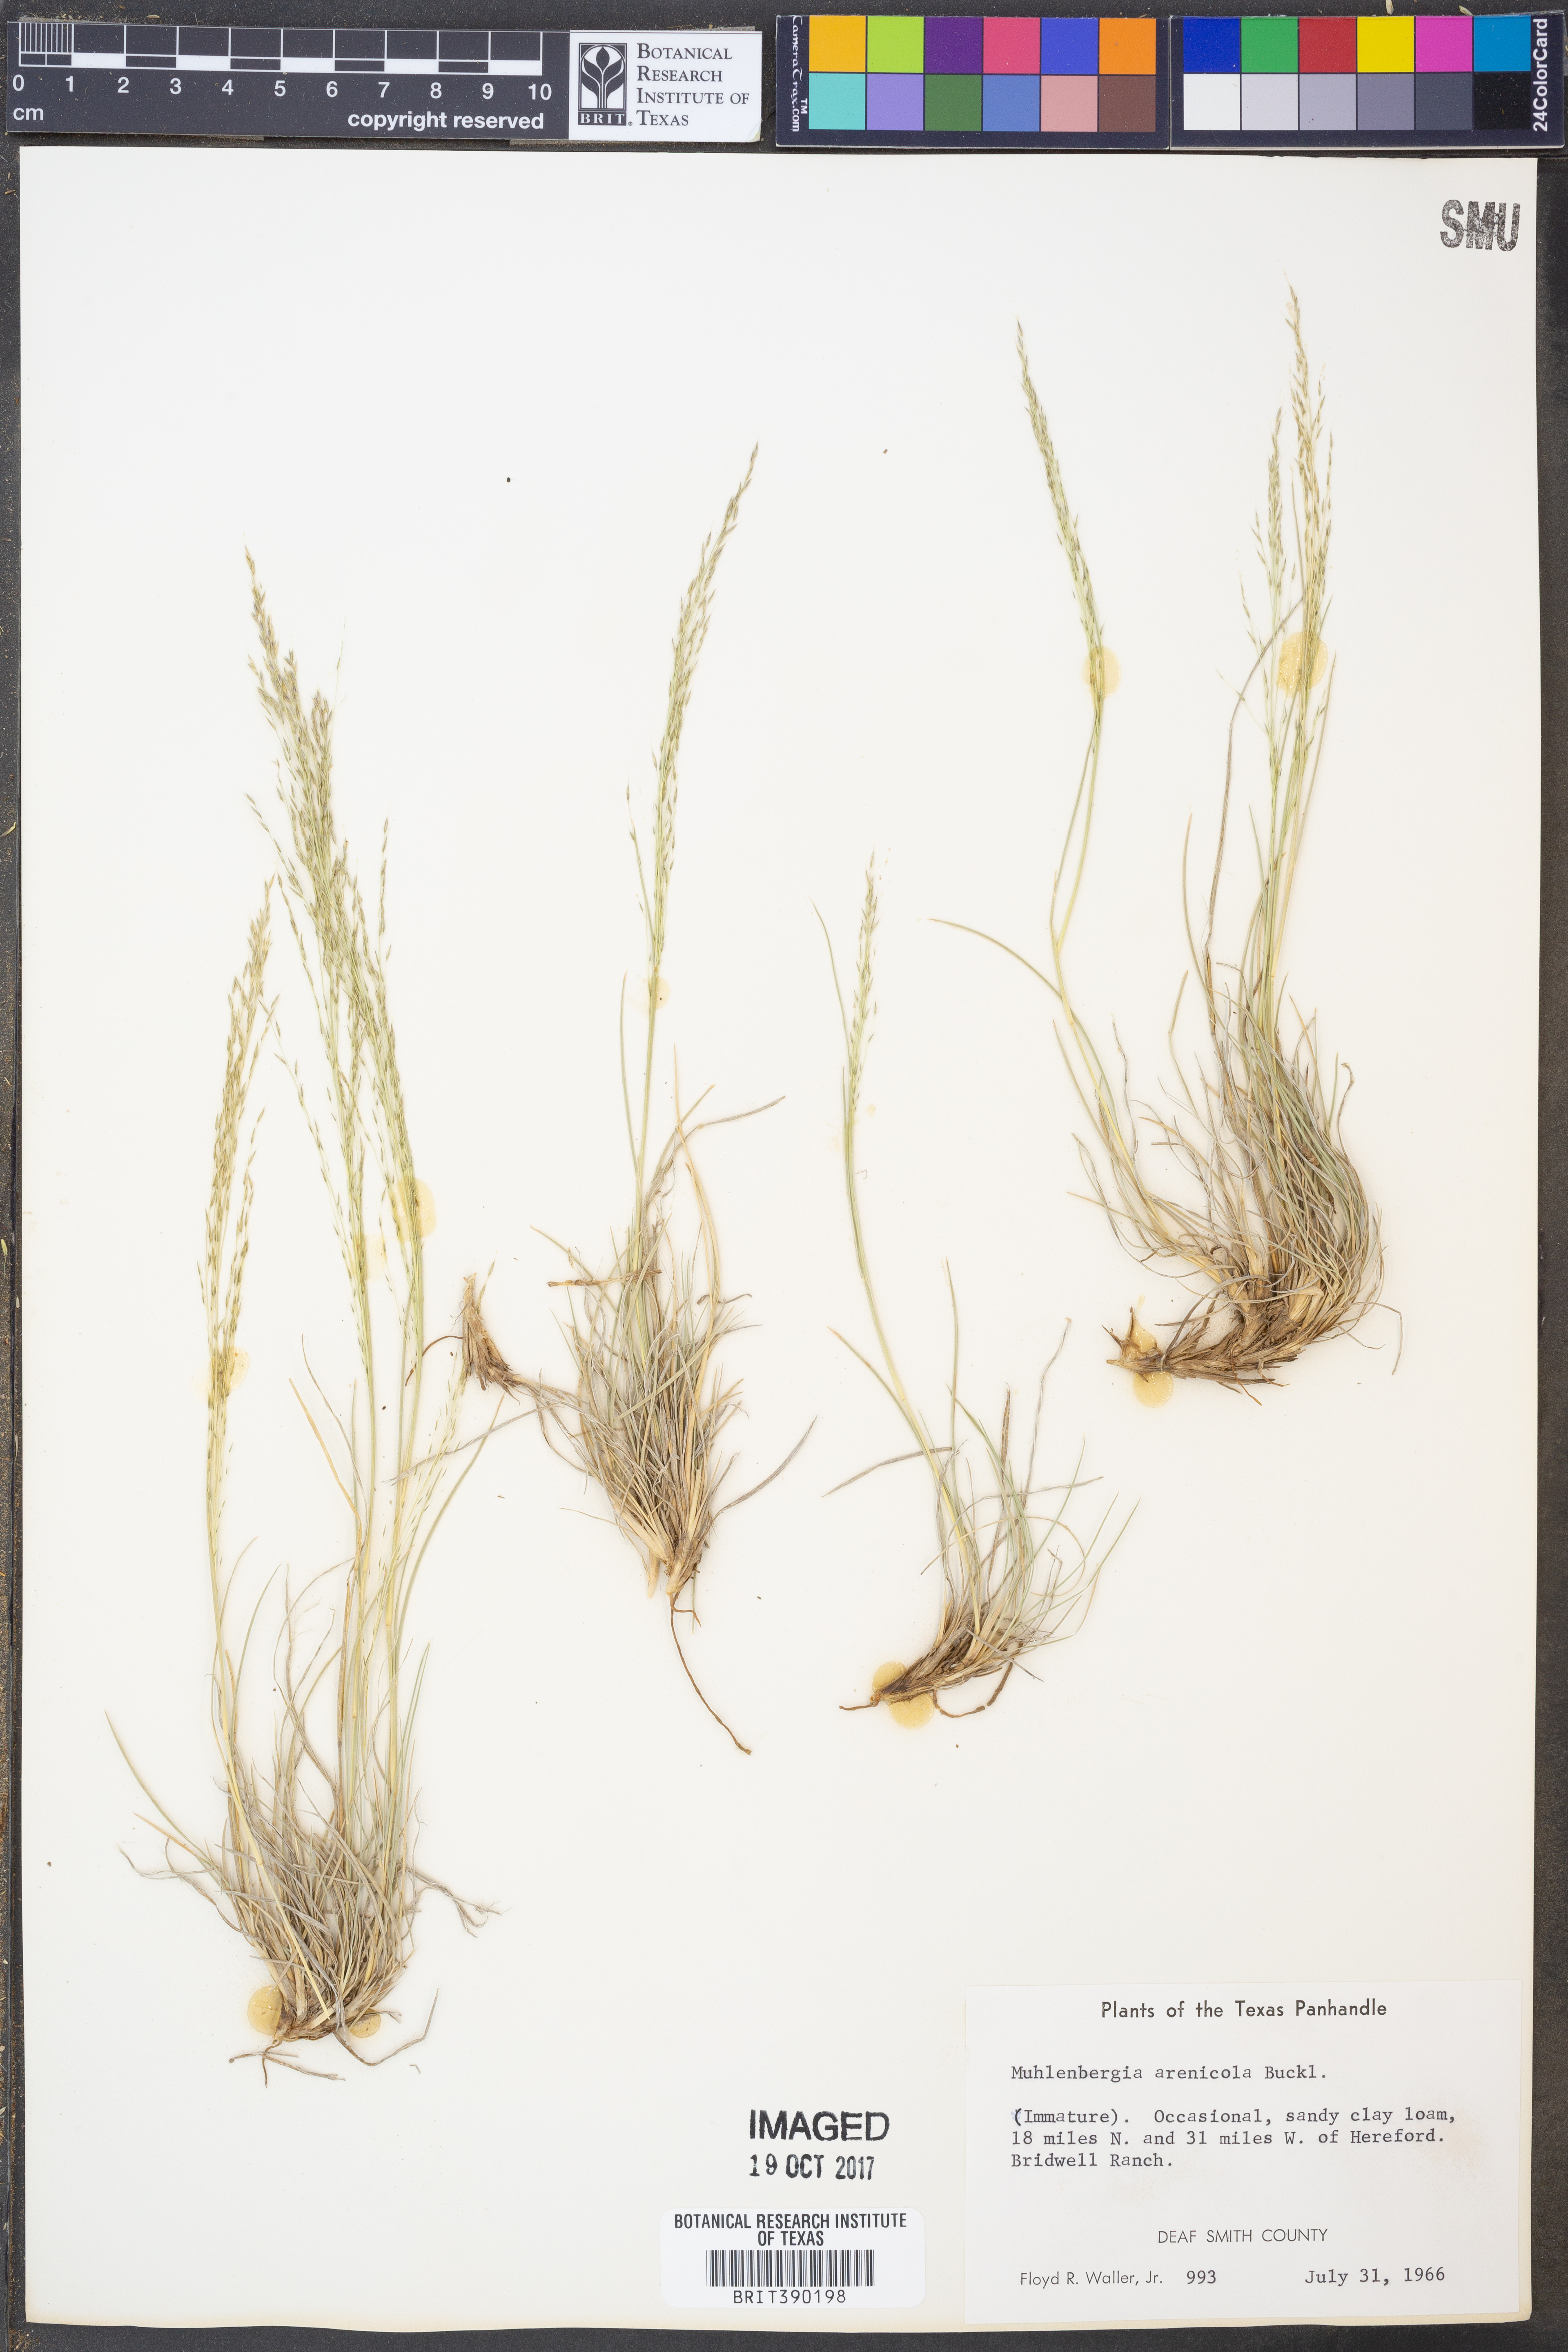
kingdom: Plantae
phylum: Tracheophyta
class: Liliopsida
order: Poales
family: Poaceae
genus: Muhlenbergia
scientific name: Muhlenbergia arenicola
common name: Sand muhly
